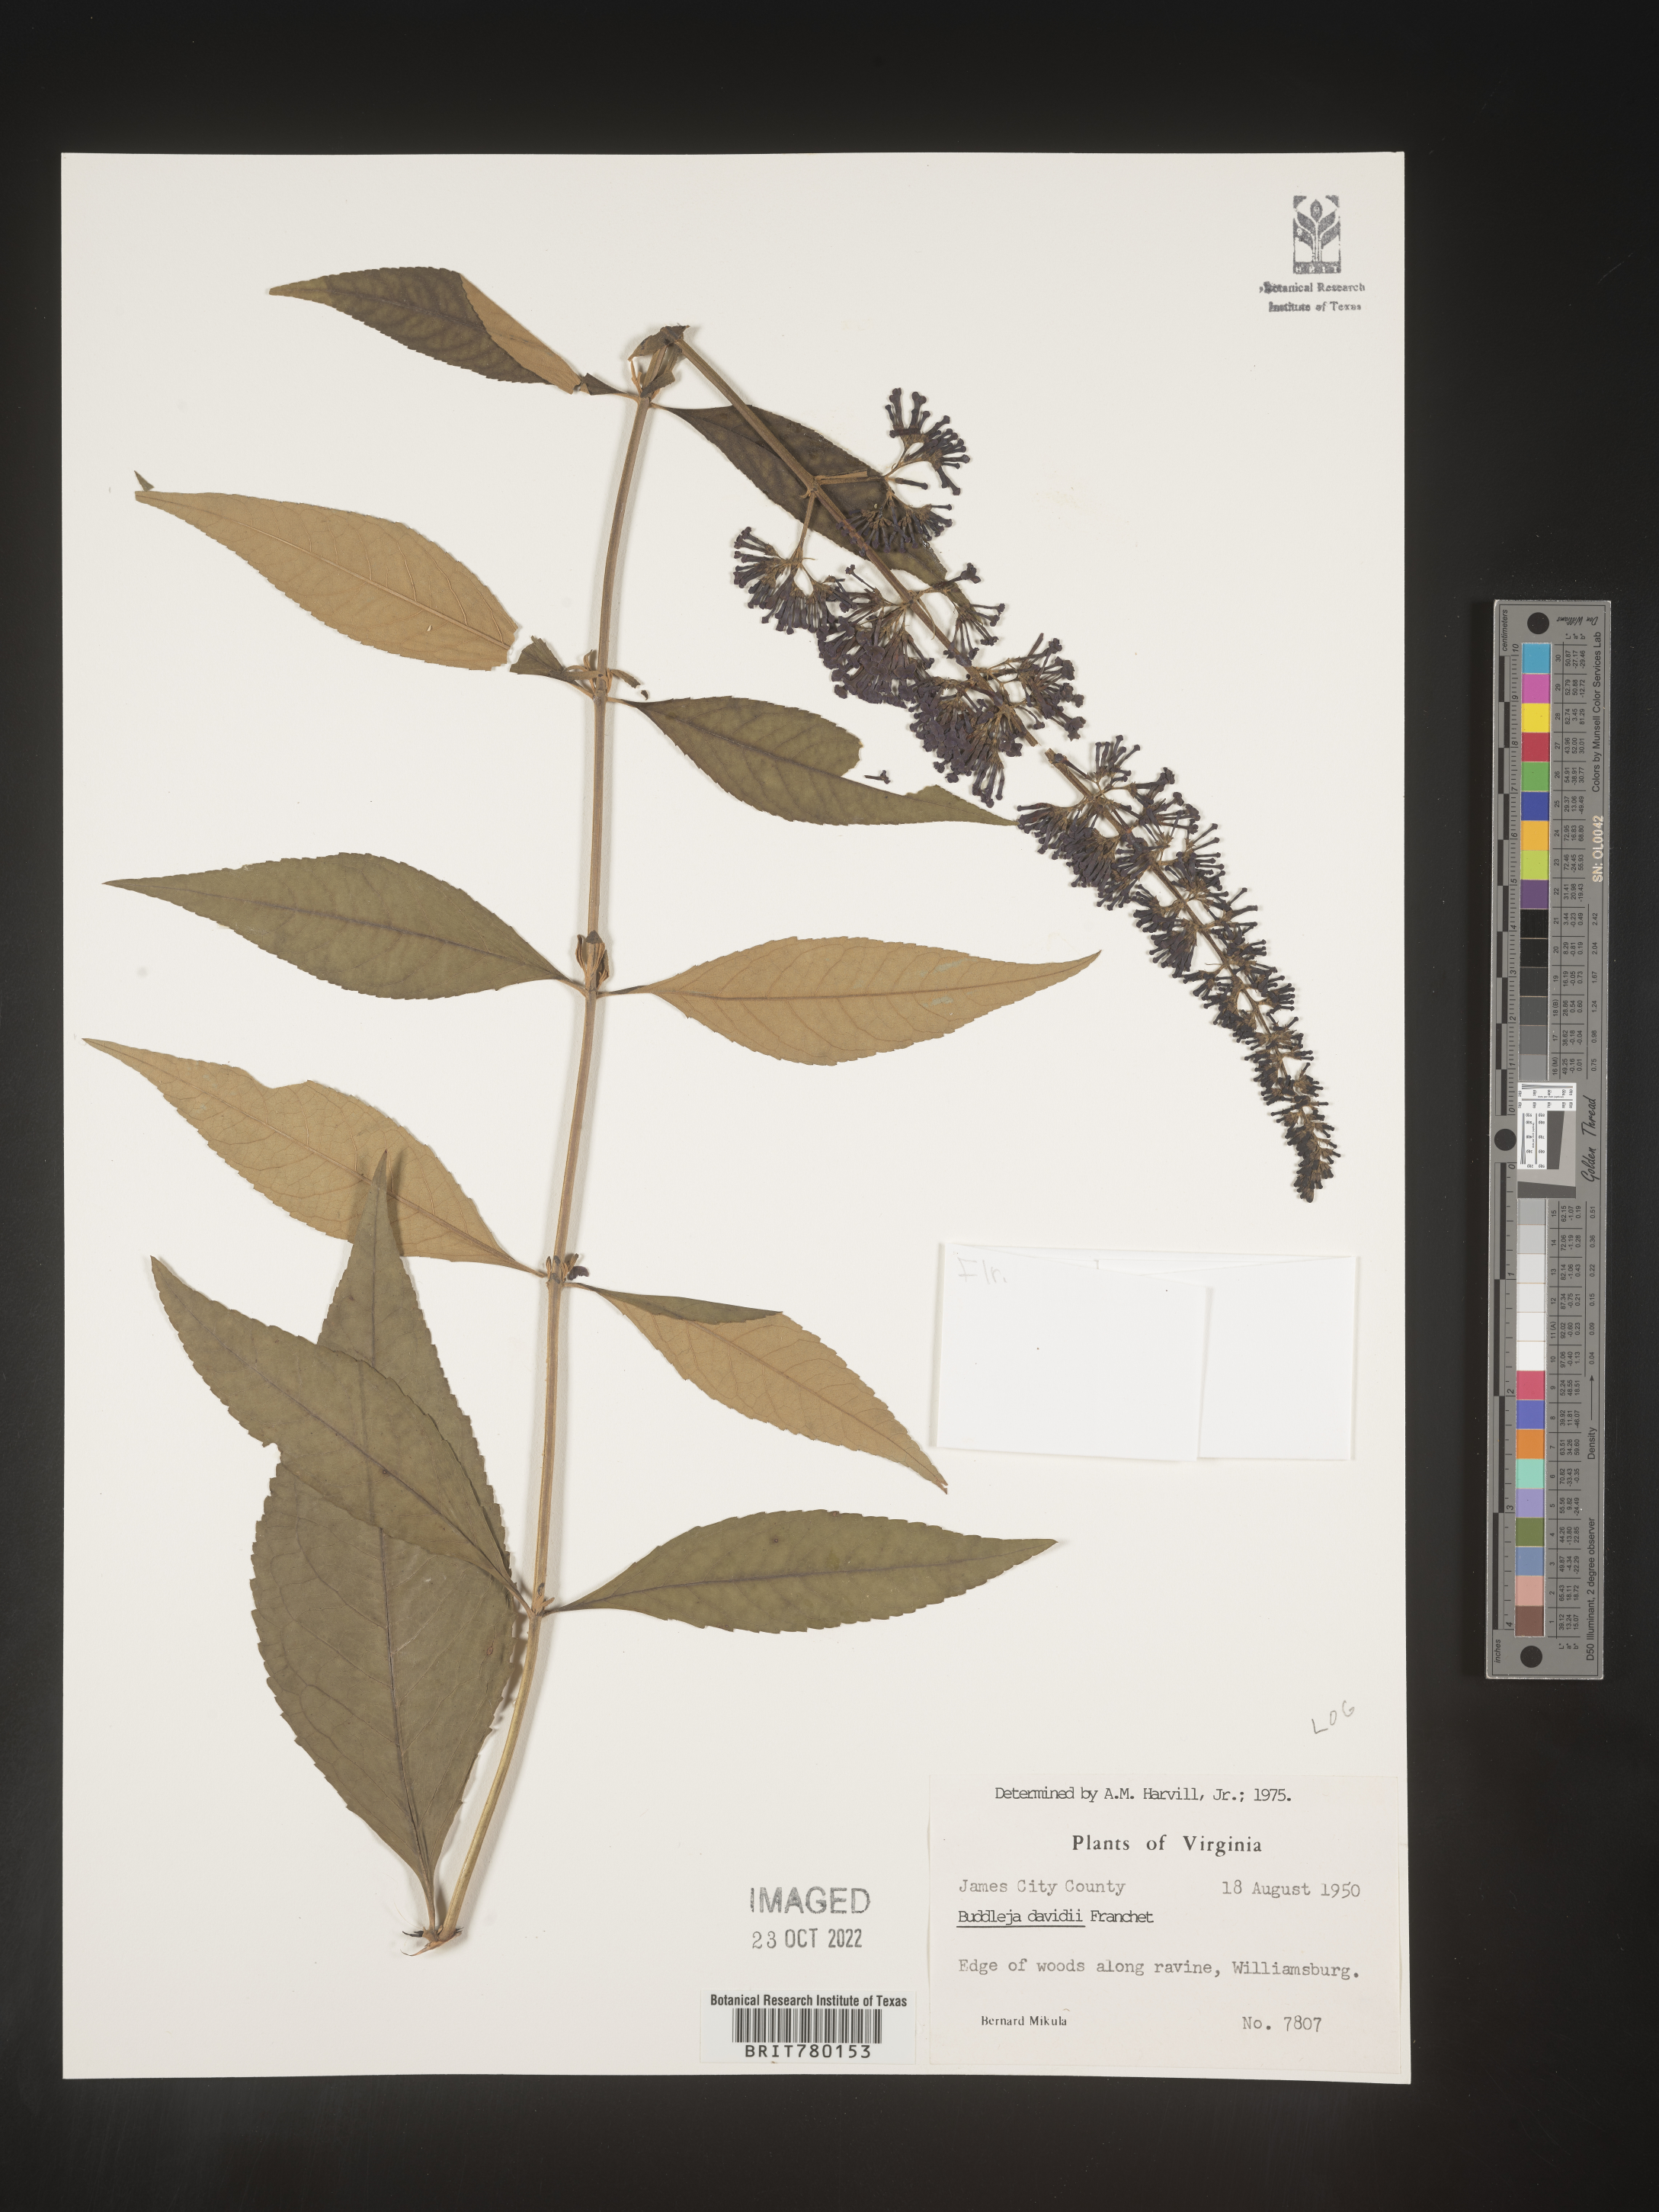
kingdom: Plantae
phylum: Tracheophyta
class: Magnoliopsida
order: Lamiales
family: Scrophulariaceae
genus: Buddleja
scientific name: Buddleja
